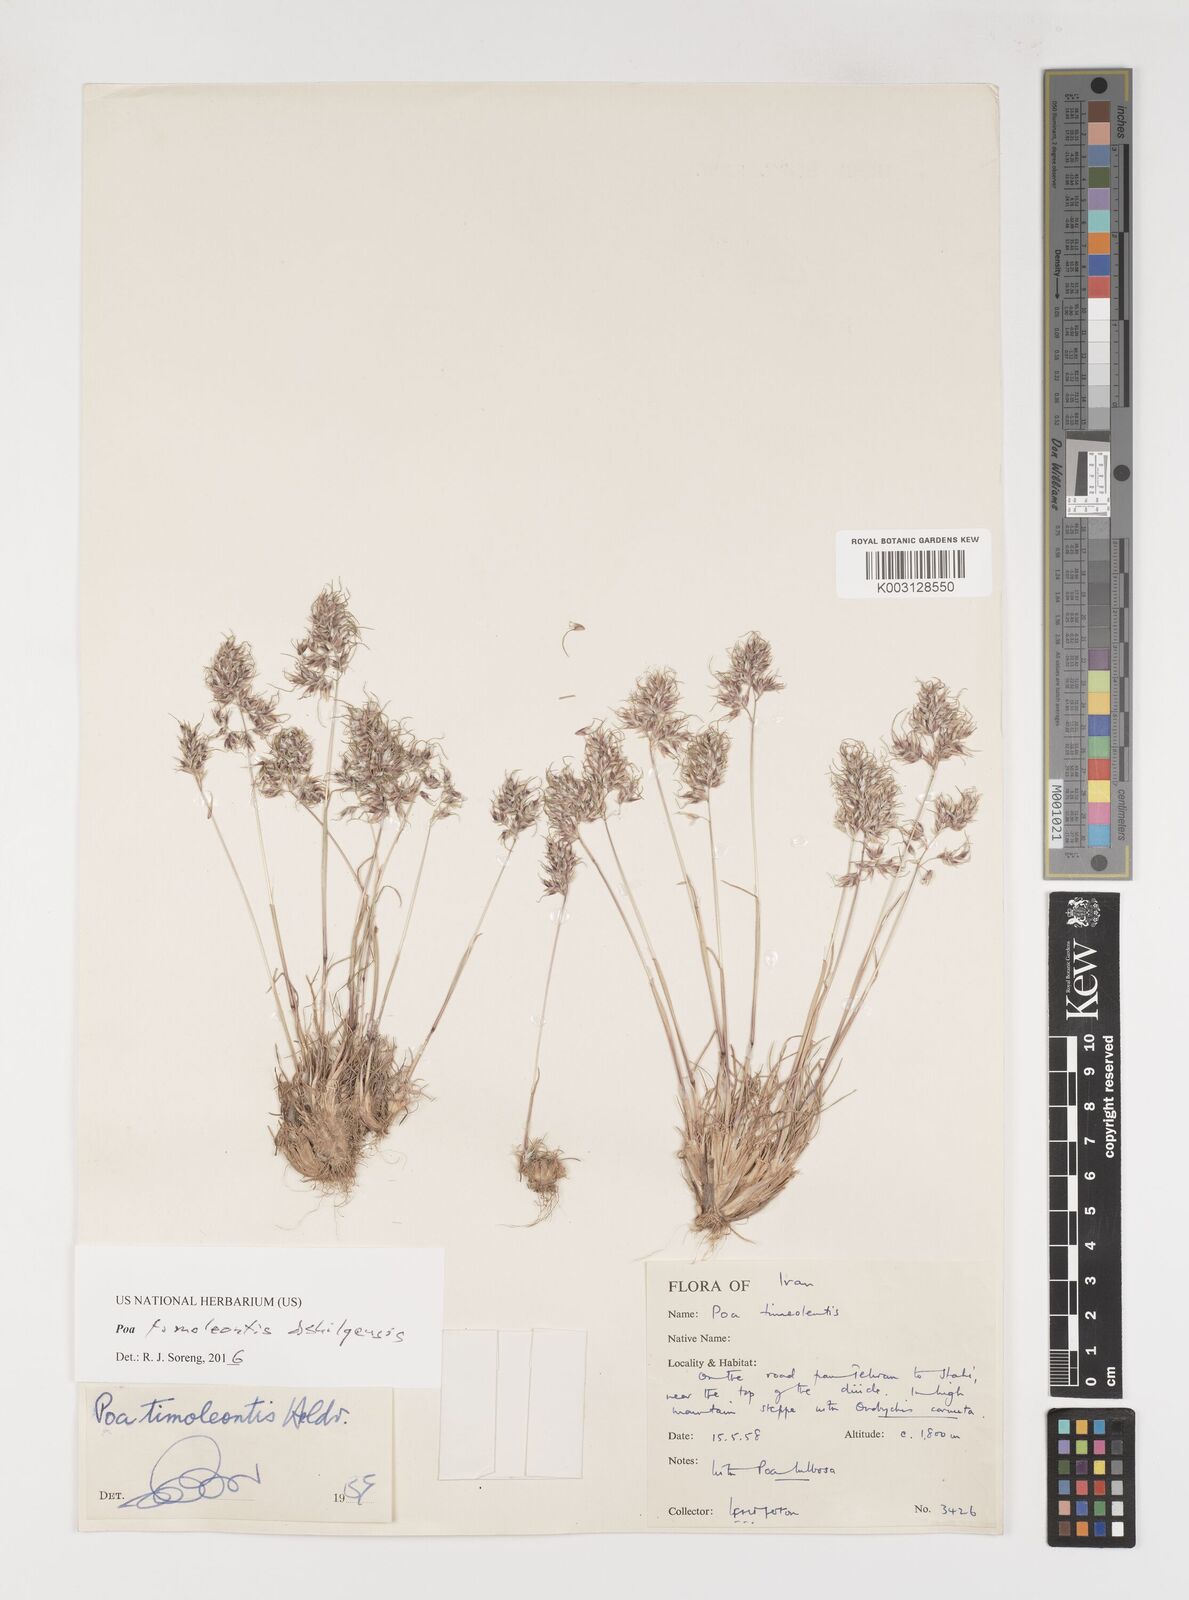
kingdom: Plantae
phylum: Tracheophyta
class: Liliopsida
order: Poales
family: Poaceae
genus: Poa
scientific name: Poa timoleontis
